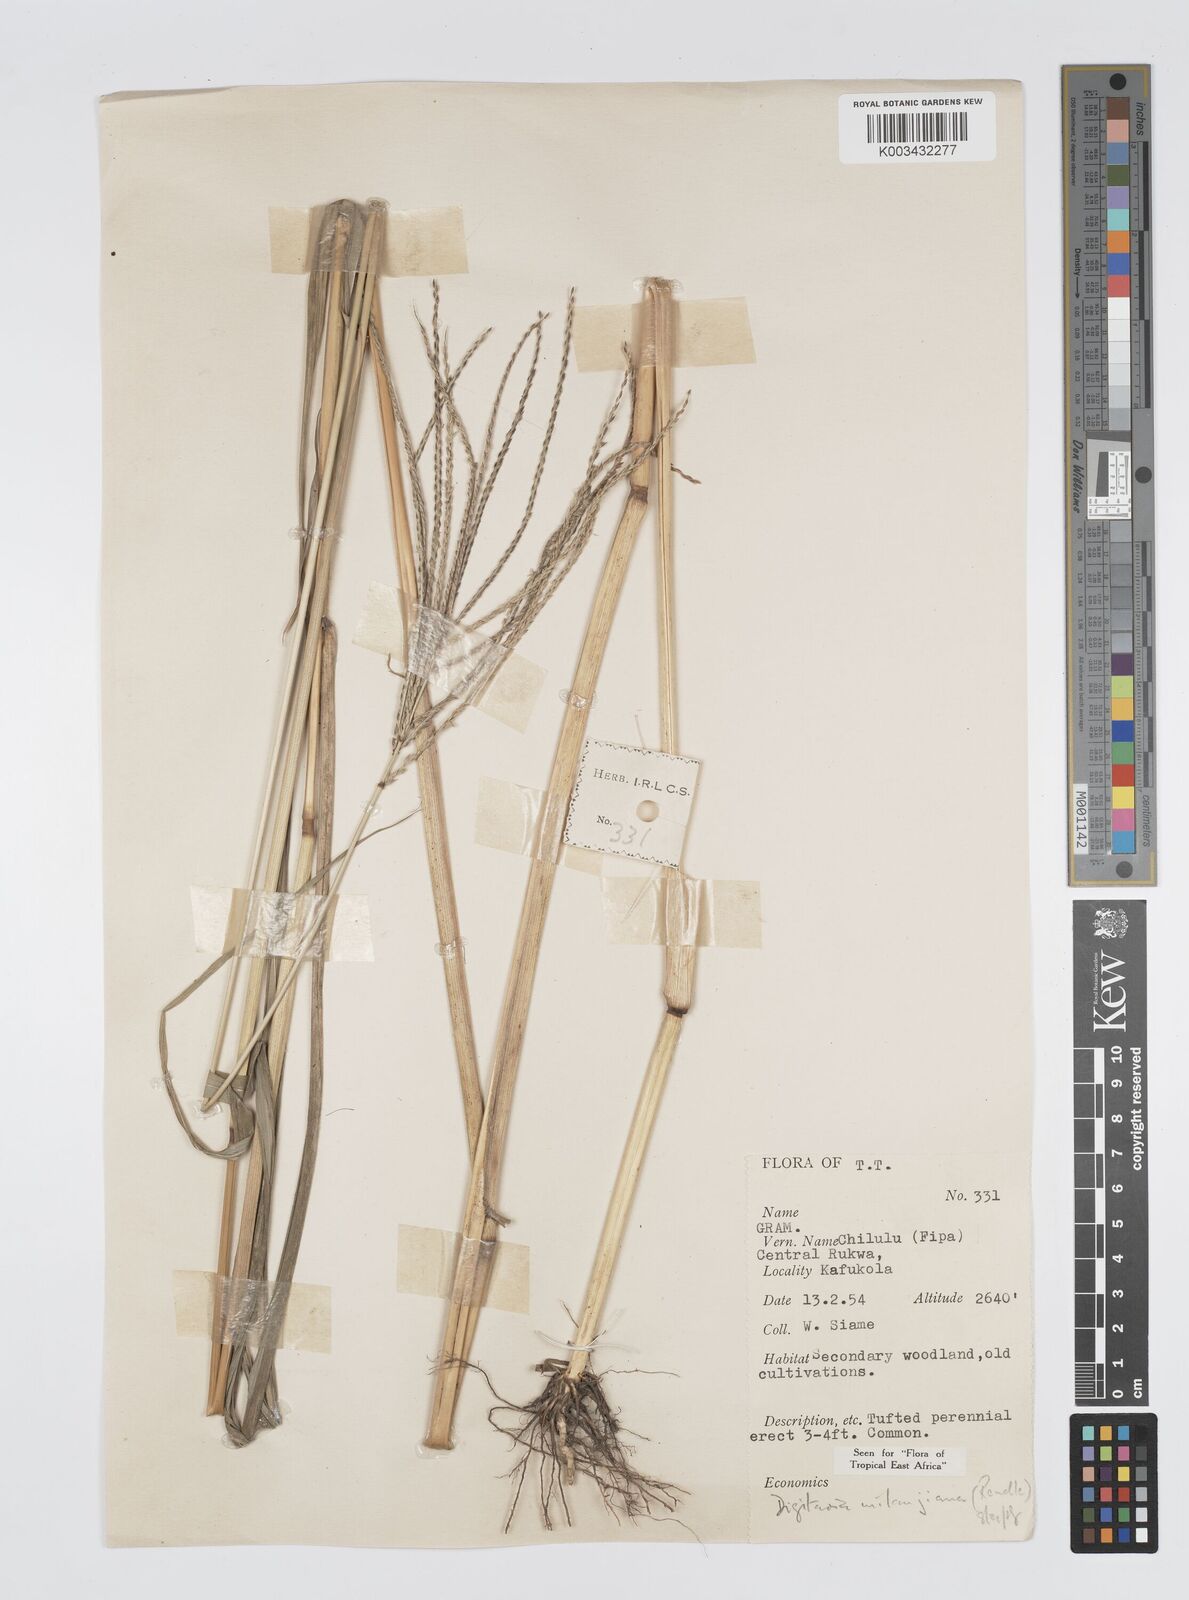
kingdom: Plantae
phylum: Tracheophyta
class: Liliopsida
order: Poales
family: Poaceae
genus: Digitaria
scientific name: Digitaria milanjiana
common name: Madagascar crabgrass
